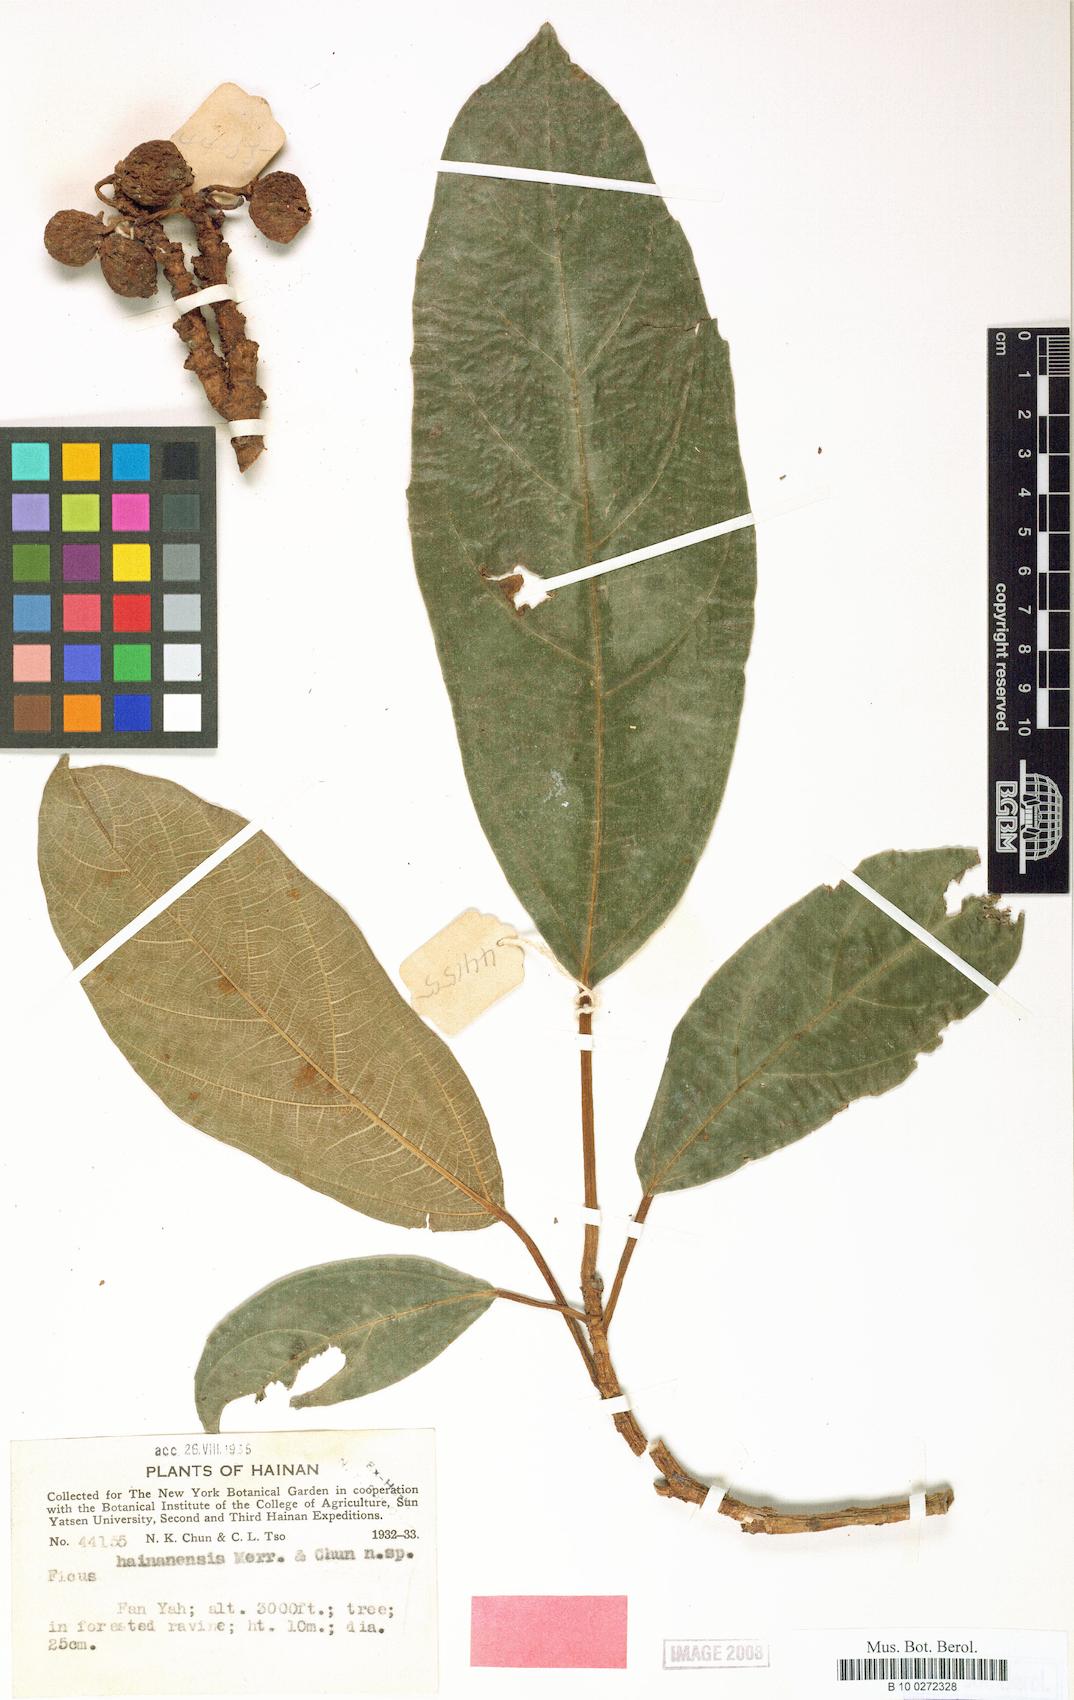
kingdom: Plantae
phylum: Tracheophyta
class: Magnoliopsida
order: Rosales
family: Moraceae
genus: Ficus
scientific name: Ficus auriculata
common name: Roxburgh fig
